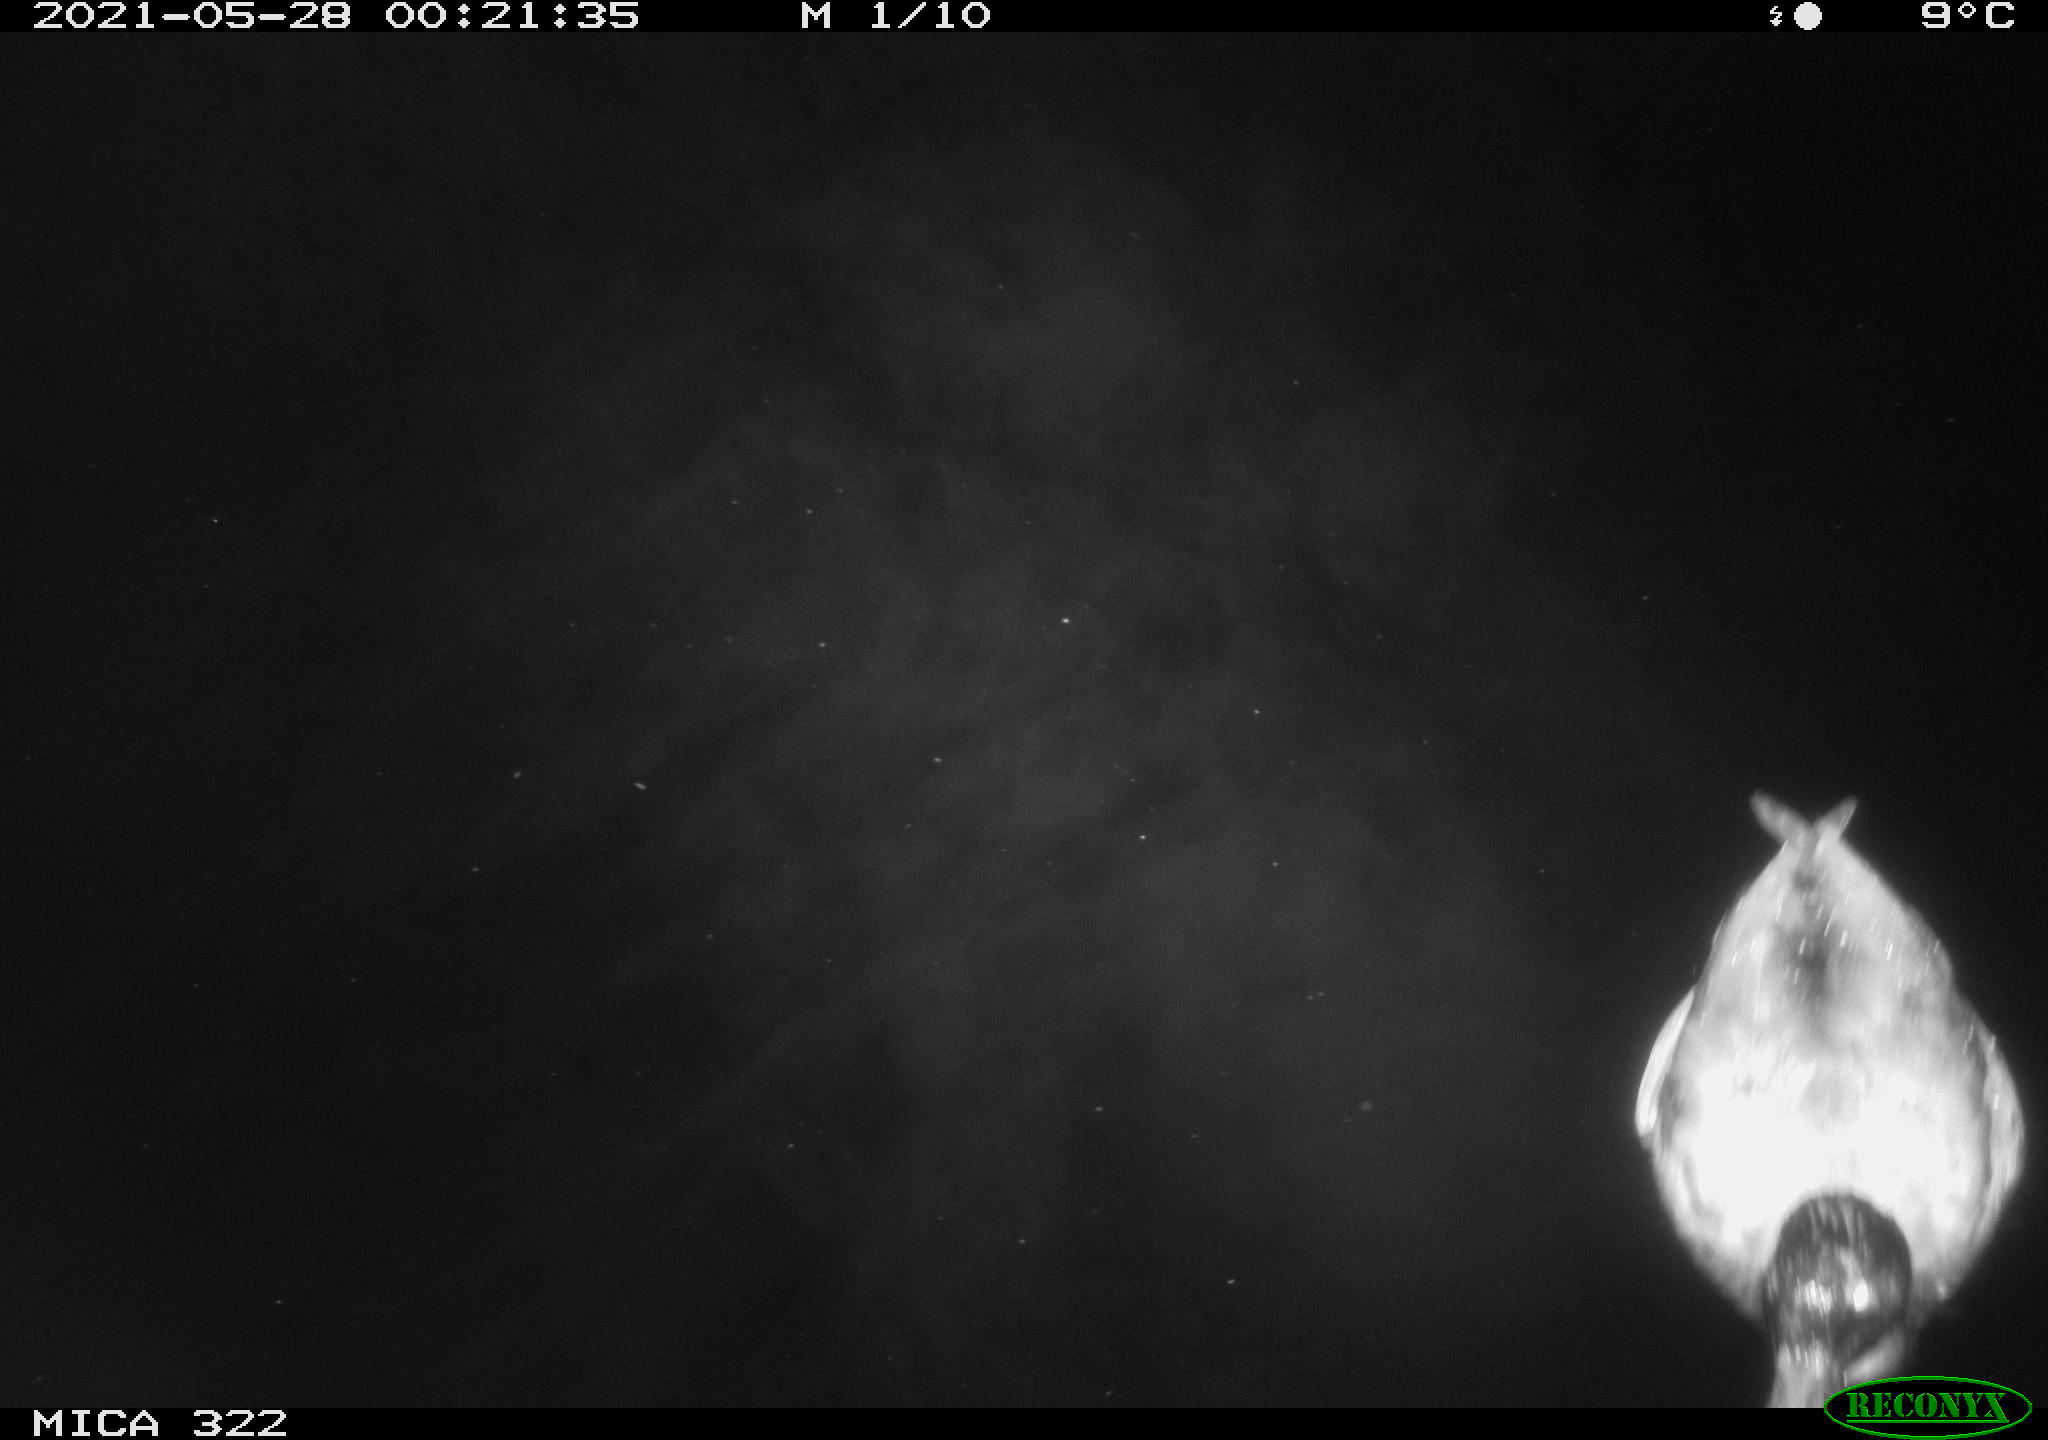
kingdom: Animalia
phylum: Chordata
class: Aves
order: Anseriformes
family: Anatidae
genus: Anas
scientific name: Anas platyrhynchos
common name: Mallard
